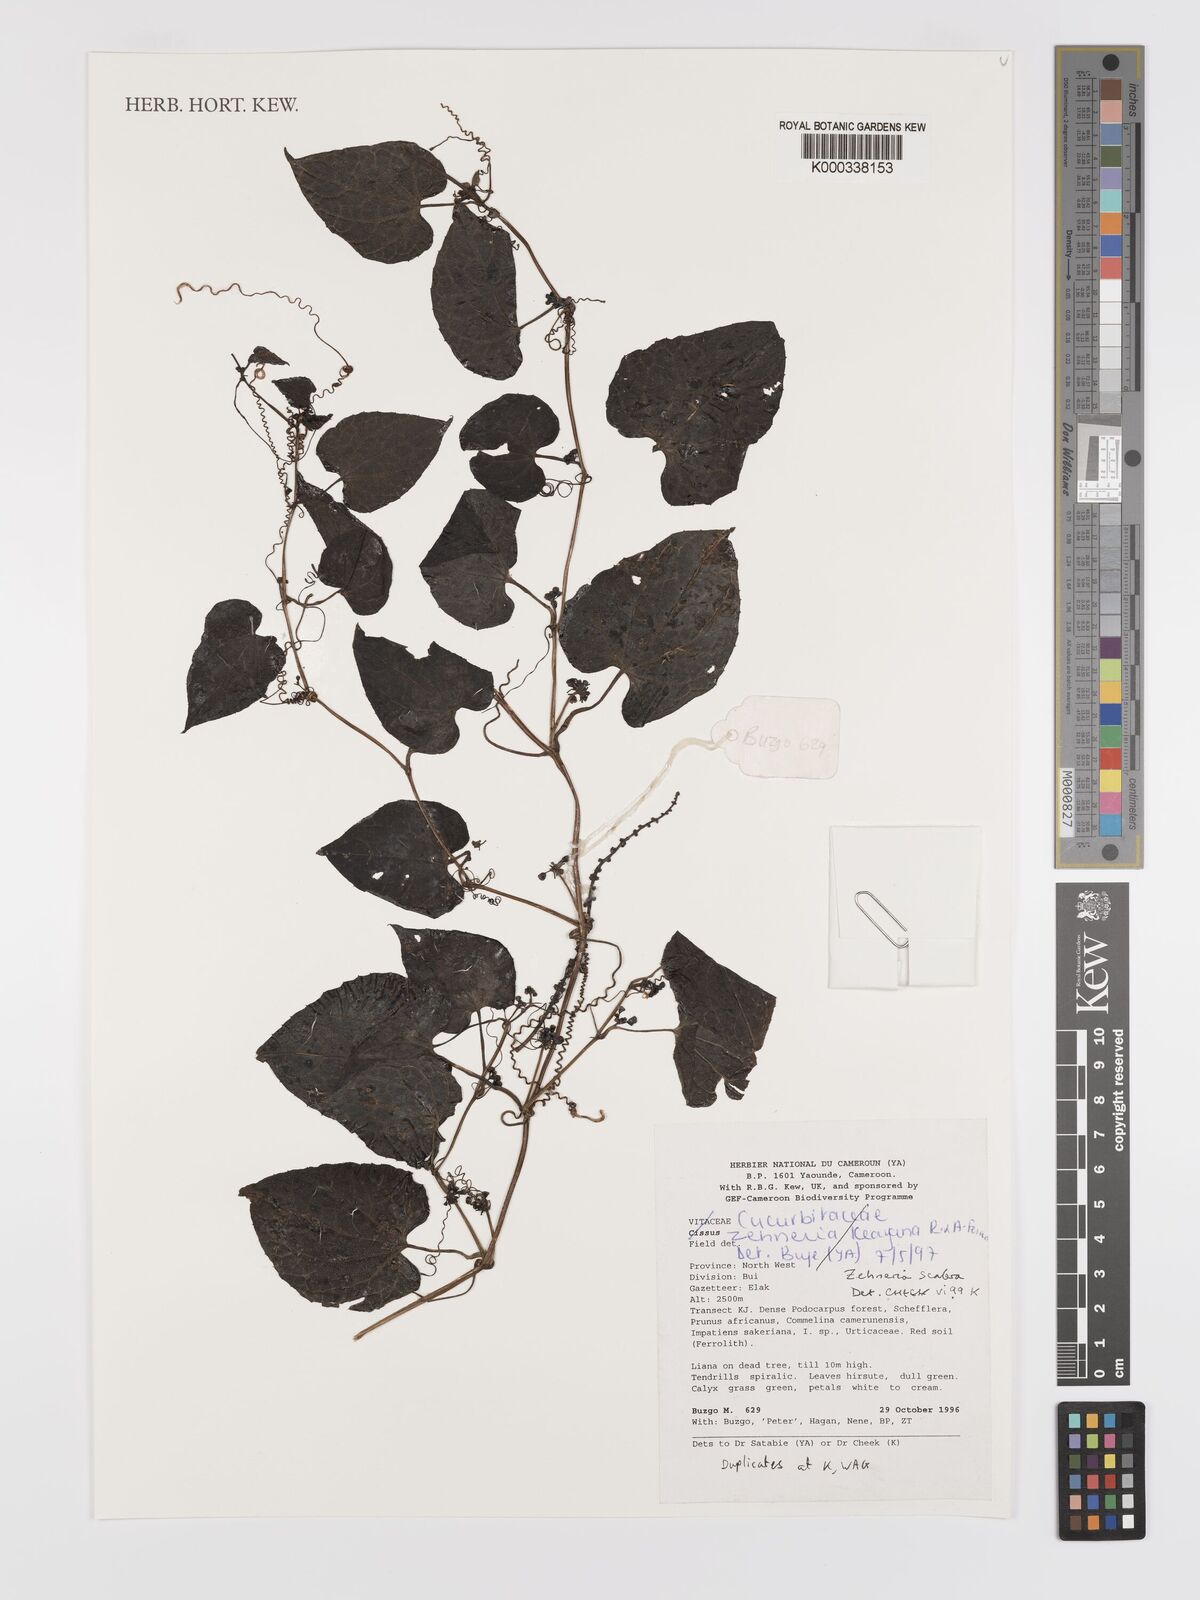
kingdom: Plantae
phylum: Tracheophyta
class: Magnoliopsida
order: Cucurbitales
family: Cucurbitaceae
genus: Zehneria
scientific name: Zehneria scabra
